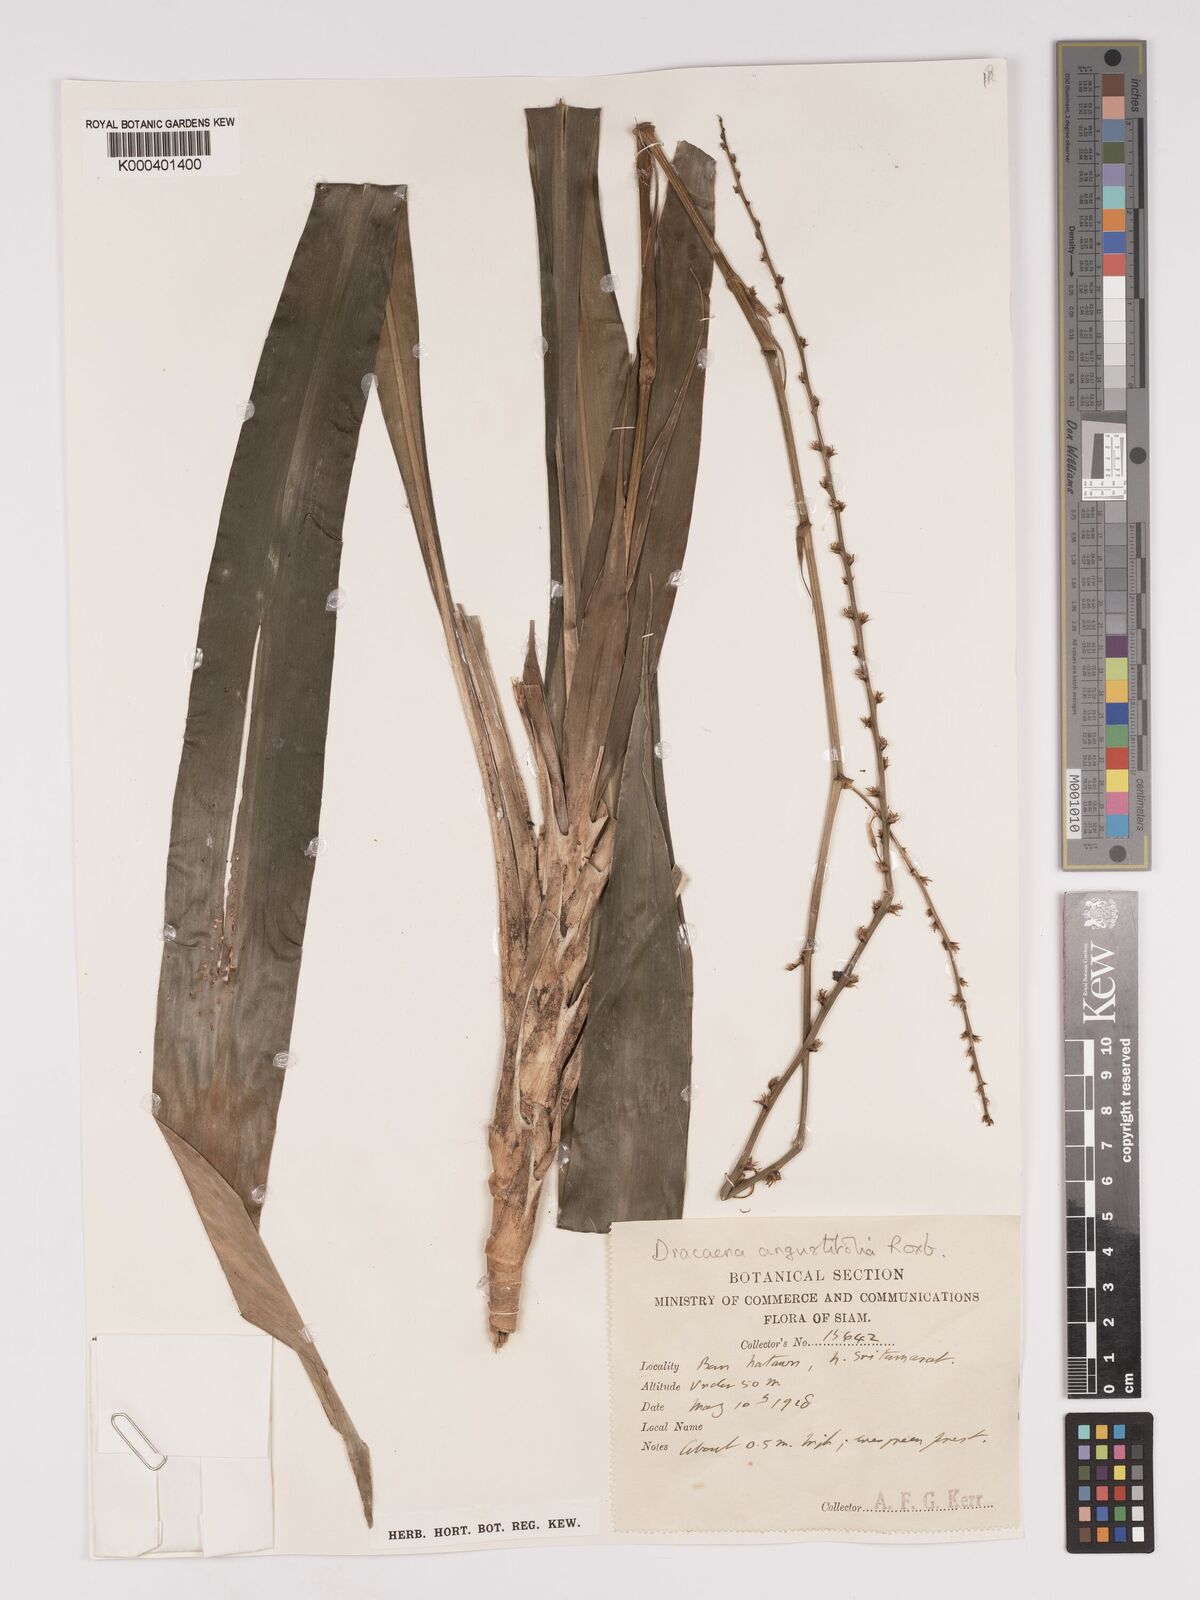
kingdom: Plantae
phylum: Tracheophyta
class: Liliopsida
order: Asparagales
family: Asparagaceae
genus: Dracaena
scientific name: Dracaena angustifolia
